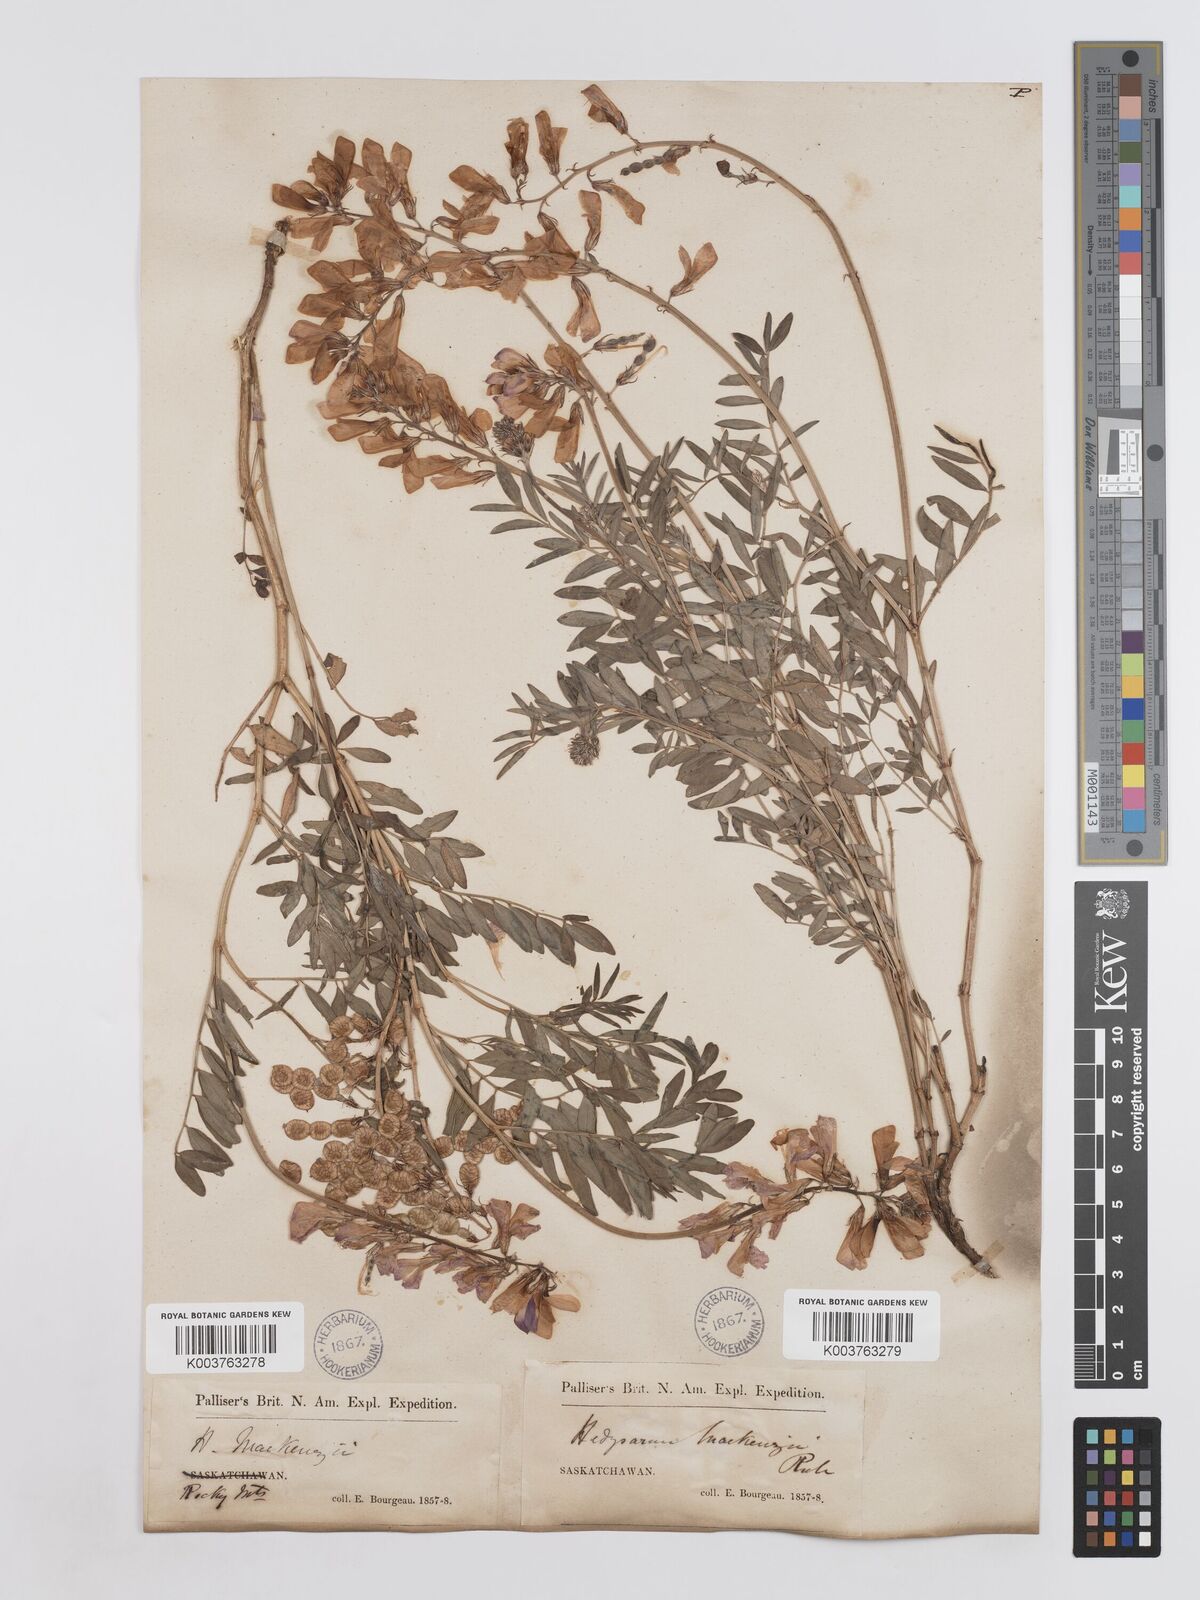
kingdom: Plantae
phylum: Tracheophyta
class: Magnoliopsida
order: Fabales
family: Fabaceae
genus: Hedysarum
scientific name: Hedysarum boreale
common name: Northern sweet-vetch
